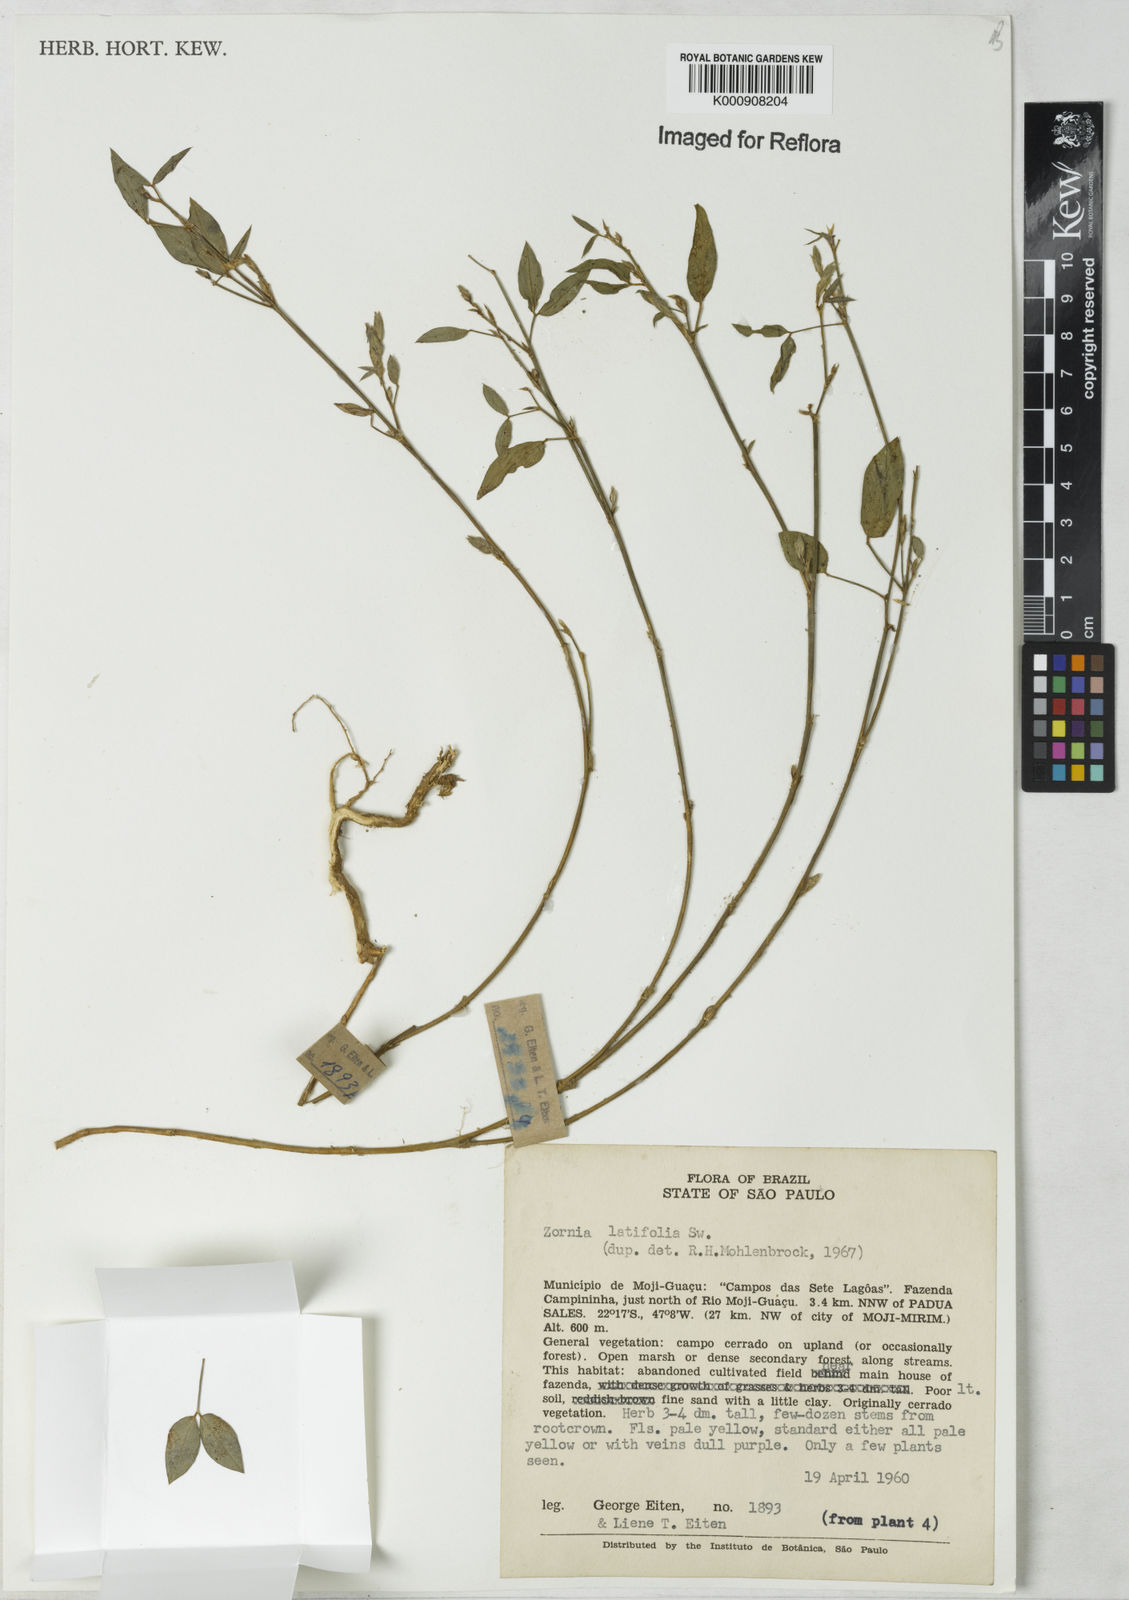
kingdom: Plantae
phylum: Tracheophyta
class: Magnoliopsida
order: Fabales
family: Fabaceae
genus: Zornia
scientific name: Zornia latifolia
